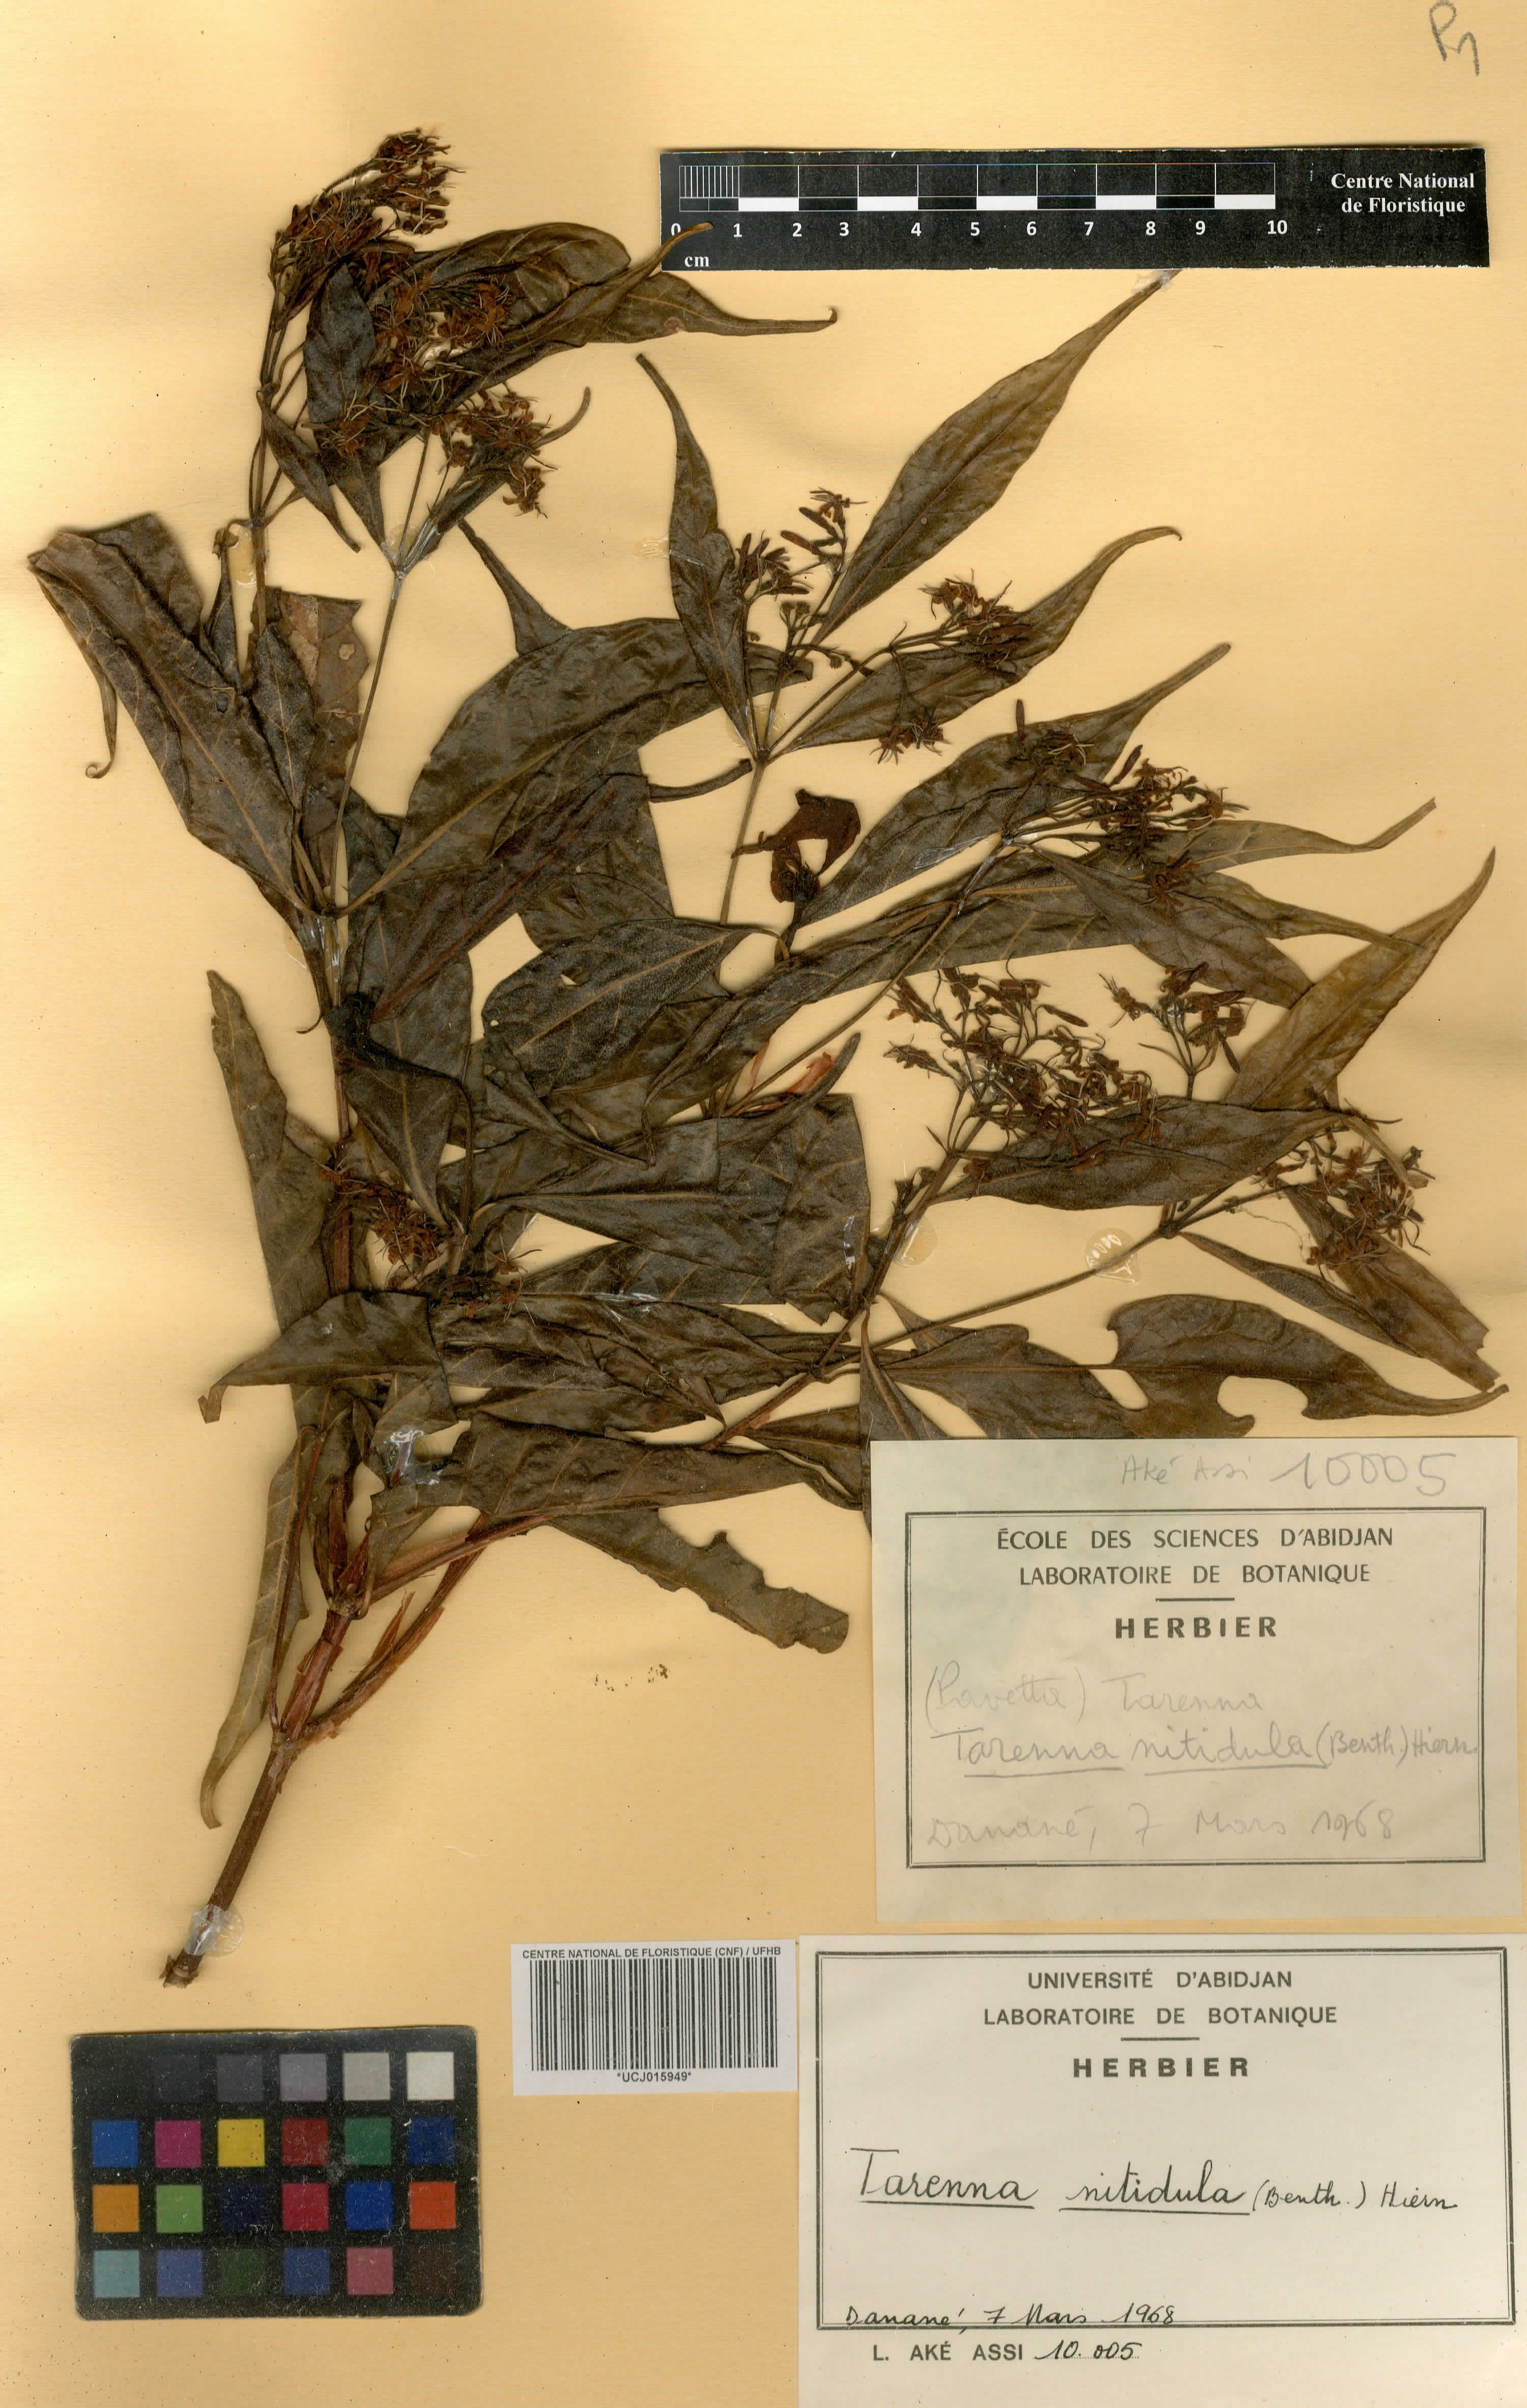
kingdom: Plantae
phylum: Tracheophyta
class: Magnoliopsida
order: Gentianales
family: Rubiaceae
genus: Tarenna
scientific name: Tarenna nitidula
